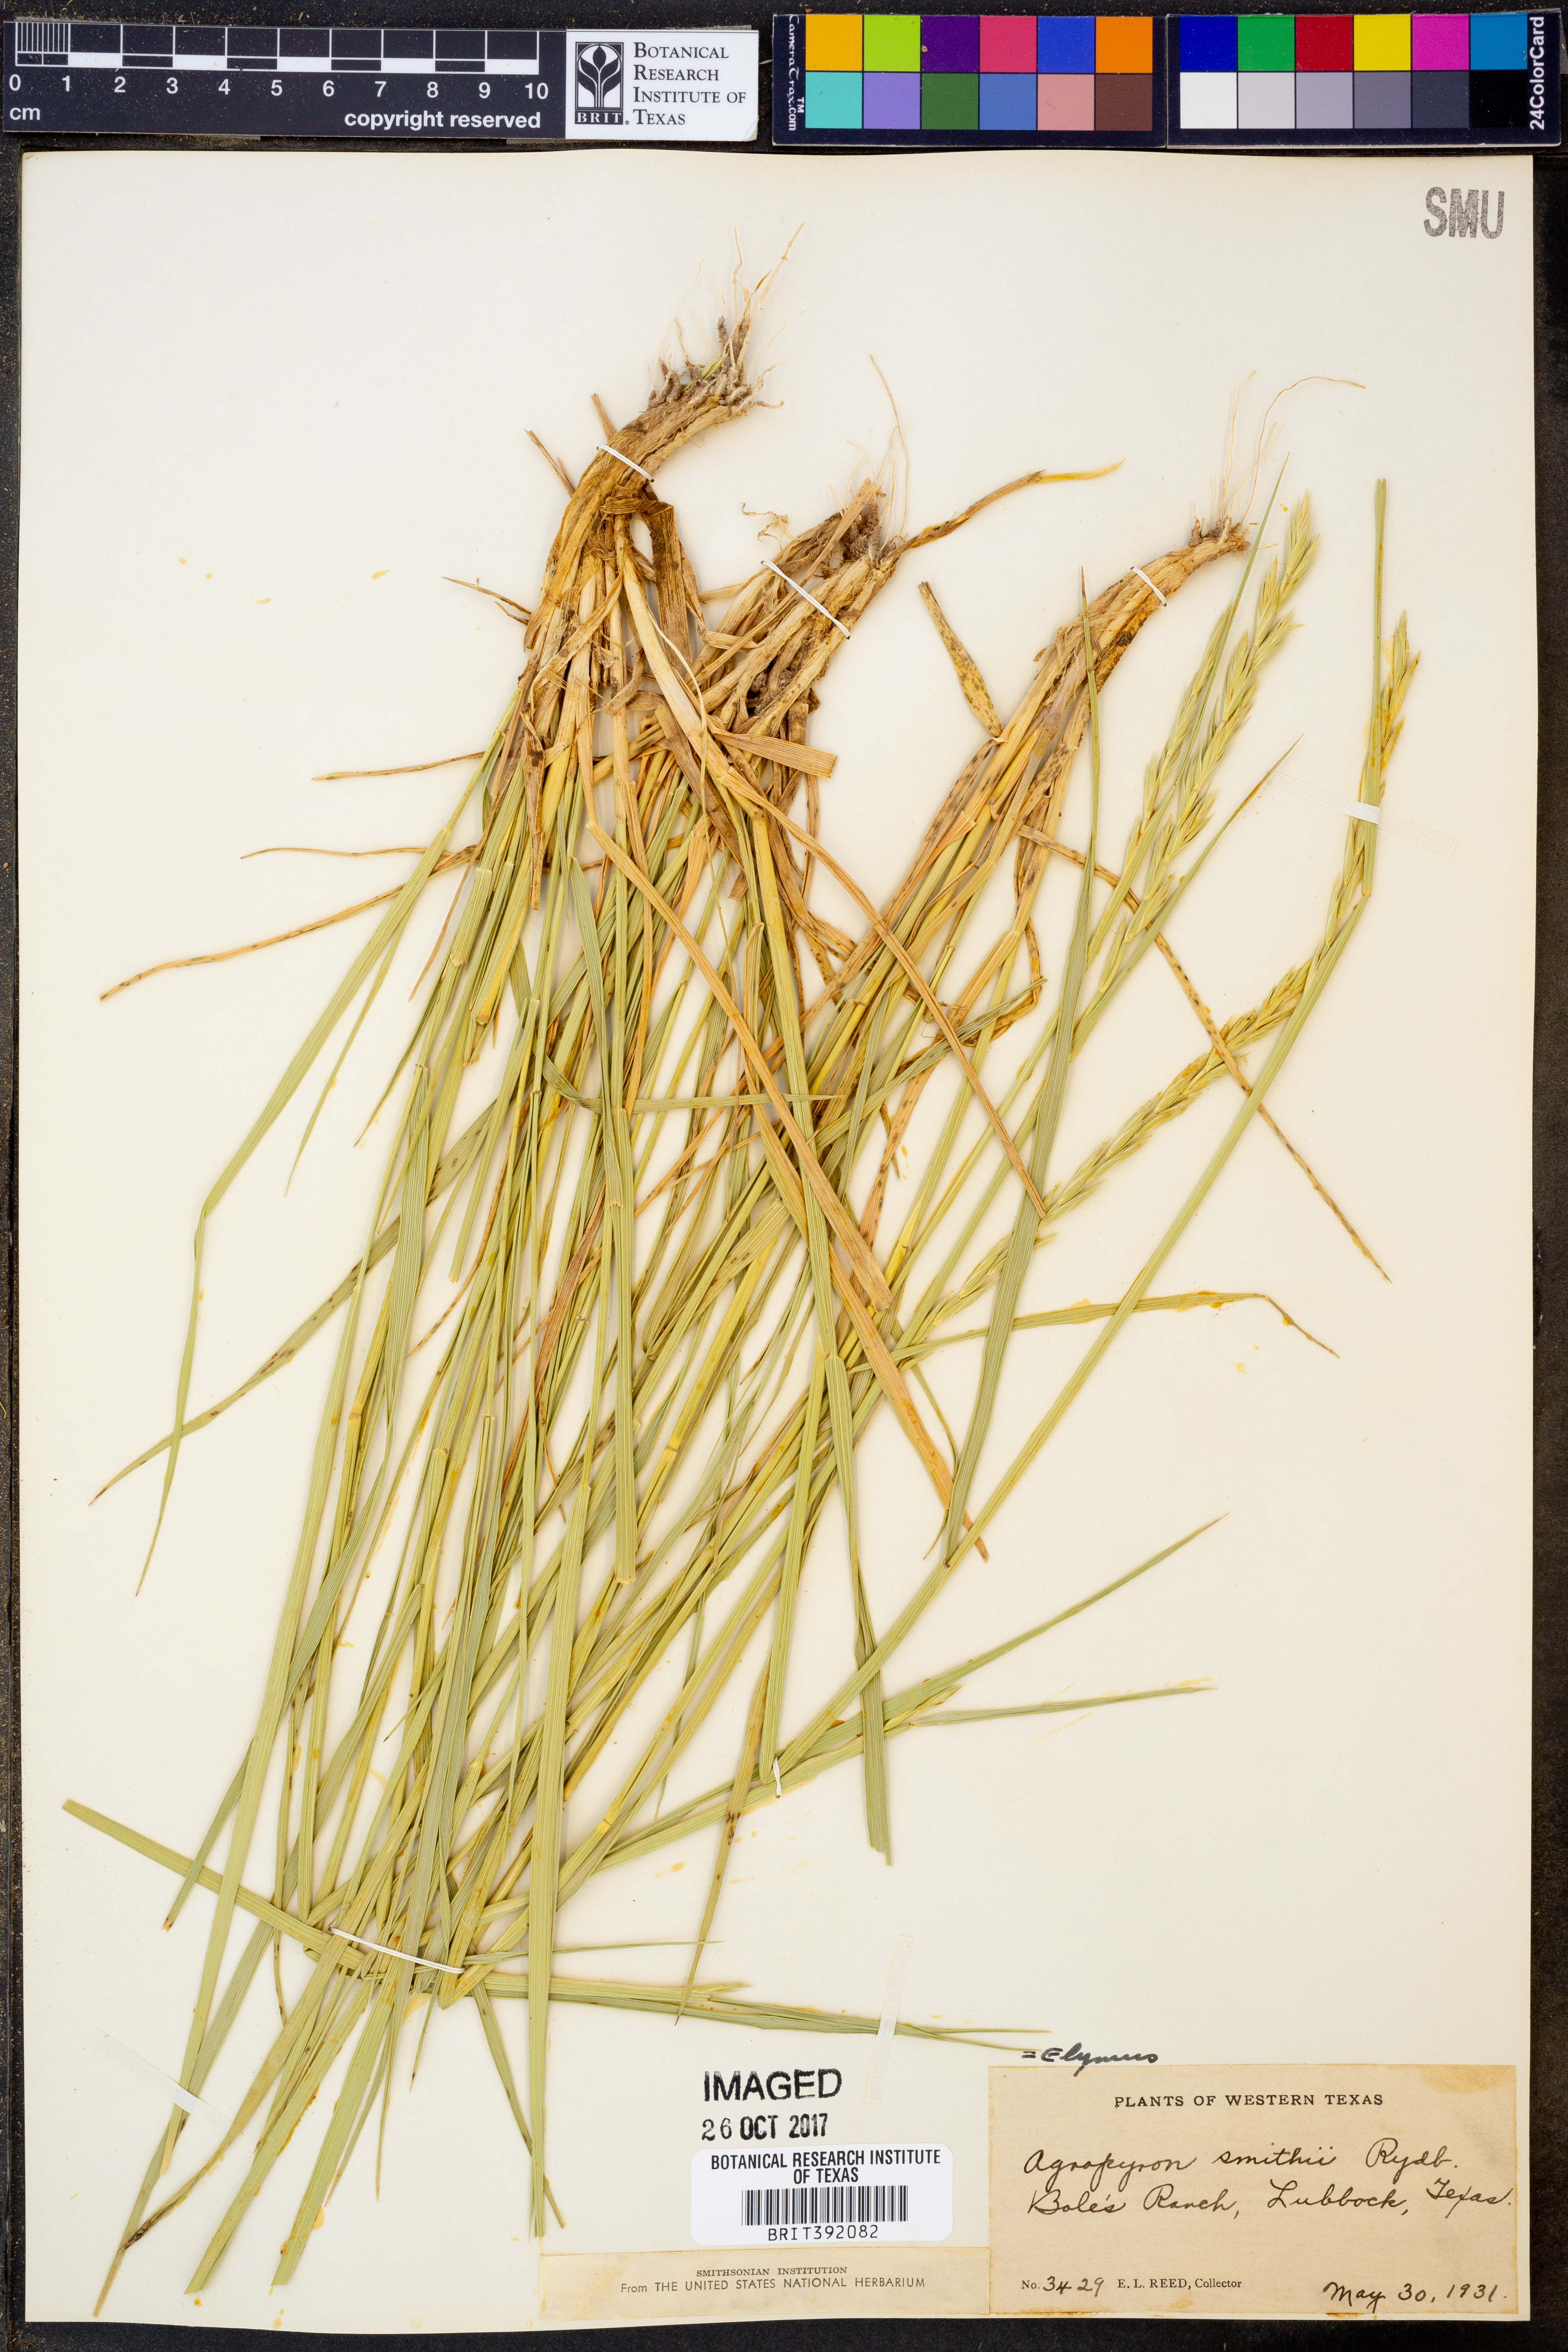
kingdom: Plantae
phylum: Tracheophyta
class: Liliopsida
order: Poales
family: Poaceae
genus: Elymus
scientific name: Elymus smithii
